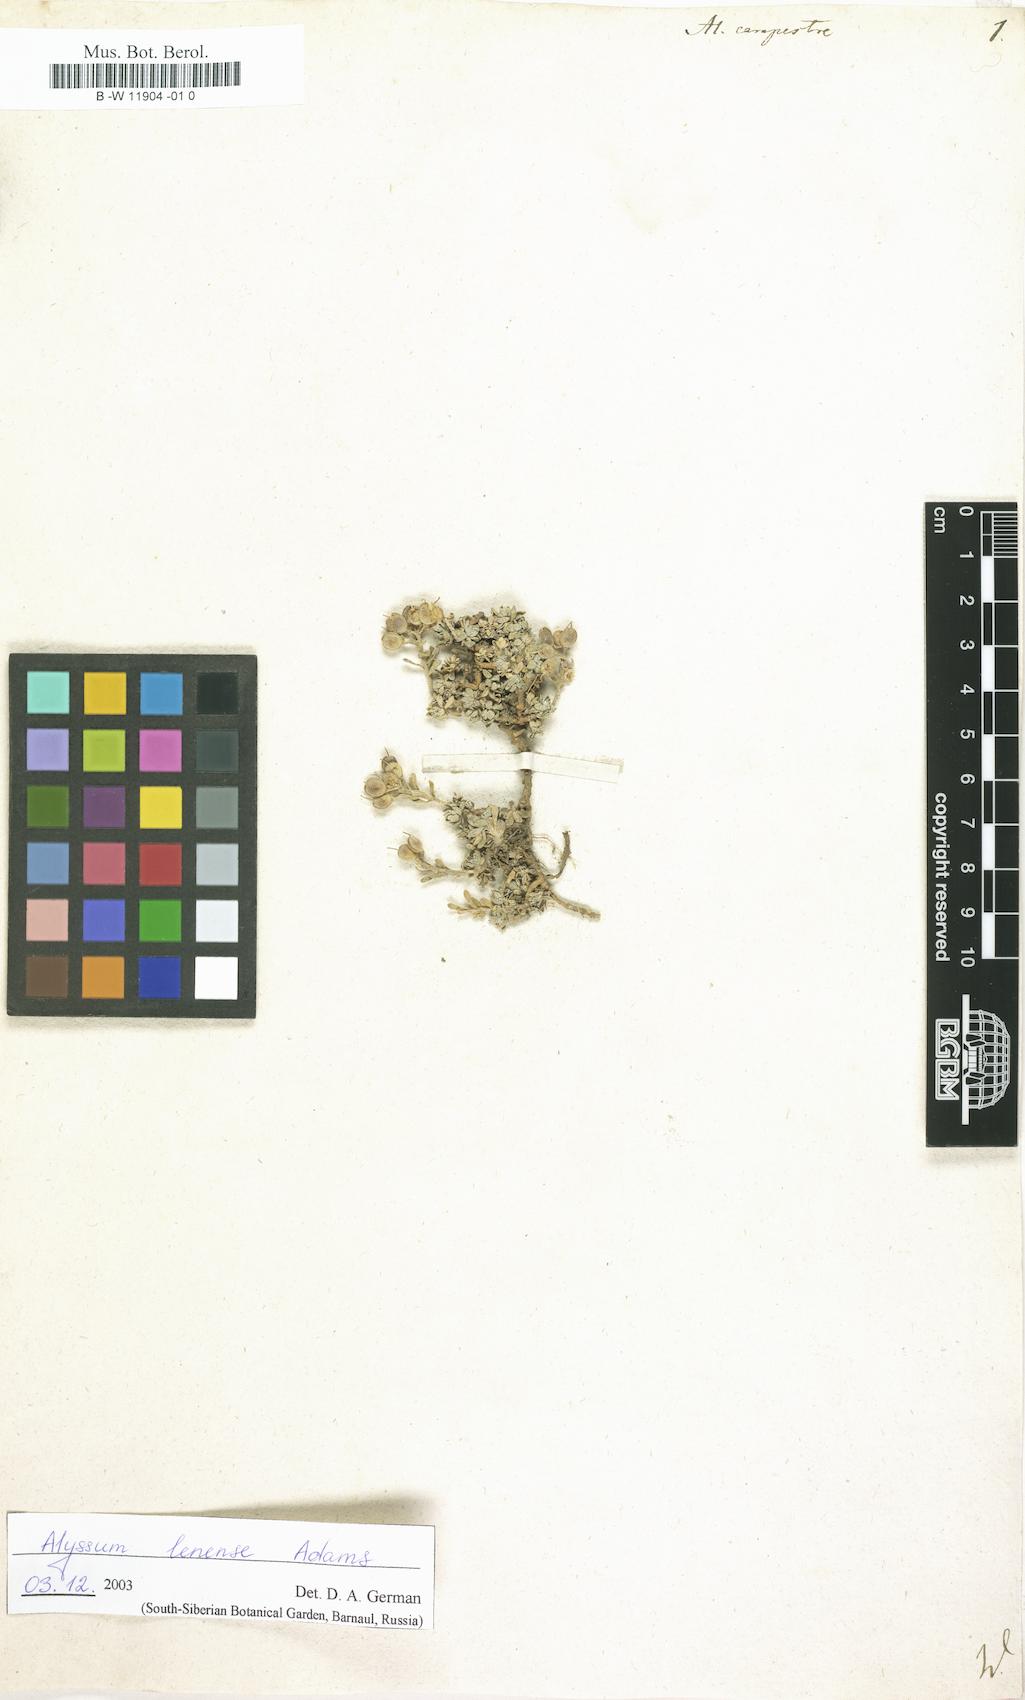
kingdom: Plantae
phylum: Tracheophyta
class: Magnoliopsida
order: Brassicales
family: Brassicaceae
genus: Alyssum
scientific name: Alyssum alyssoides
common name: Small alison
